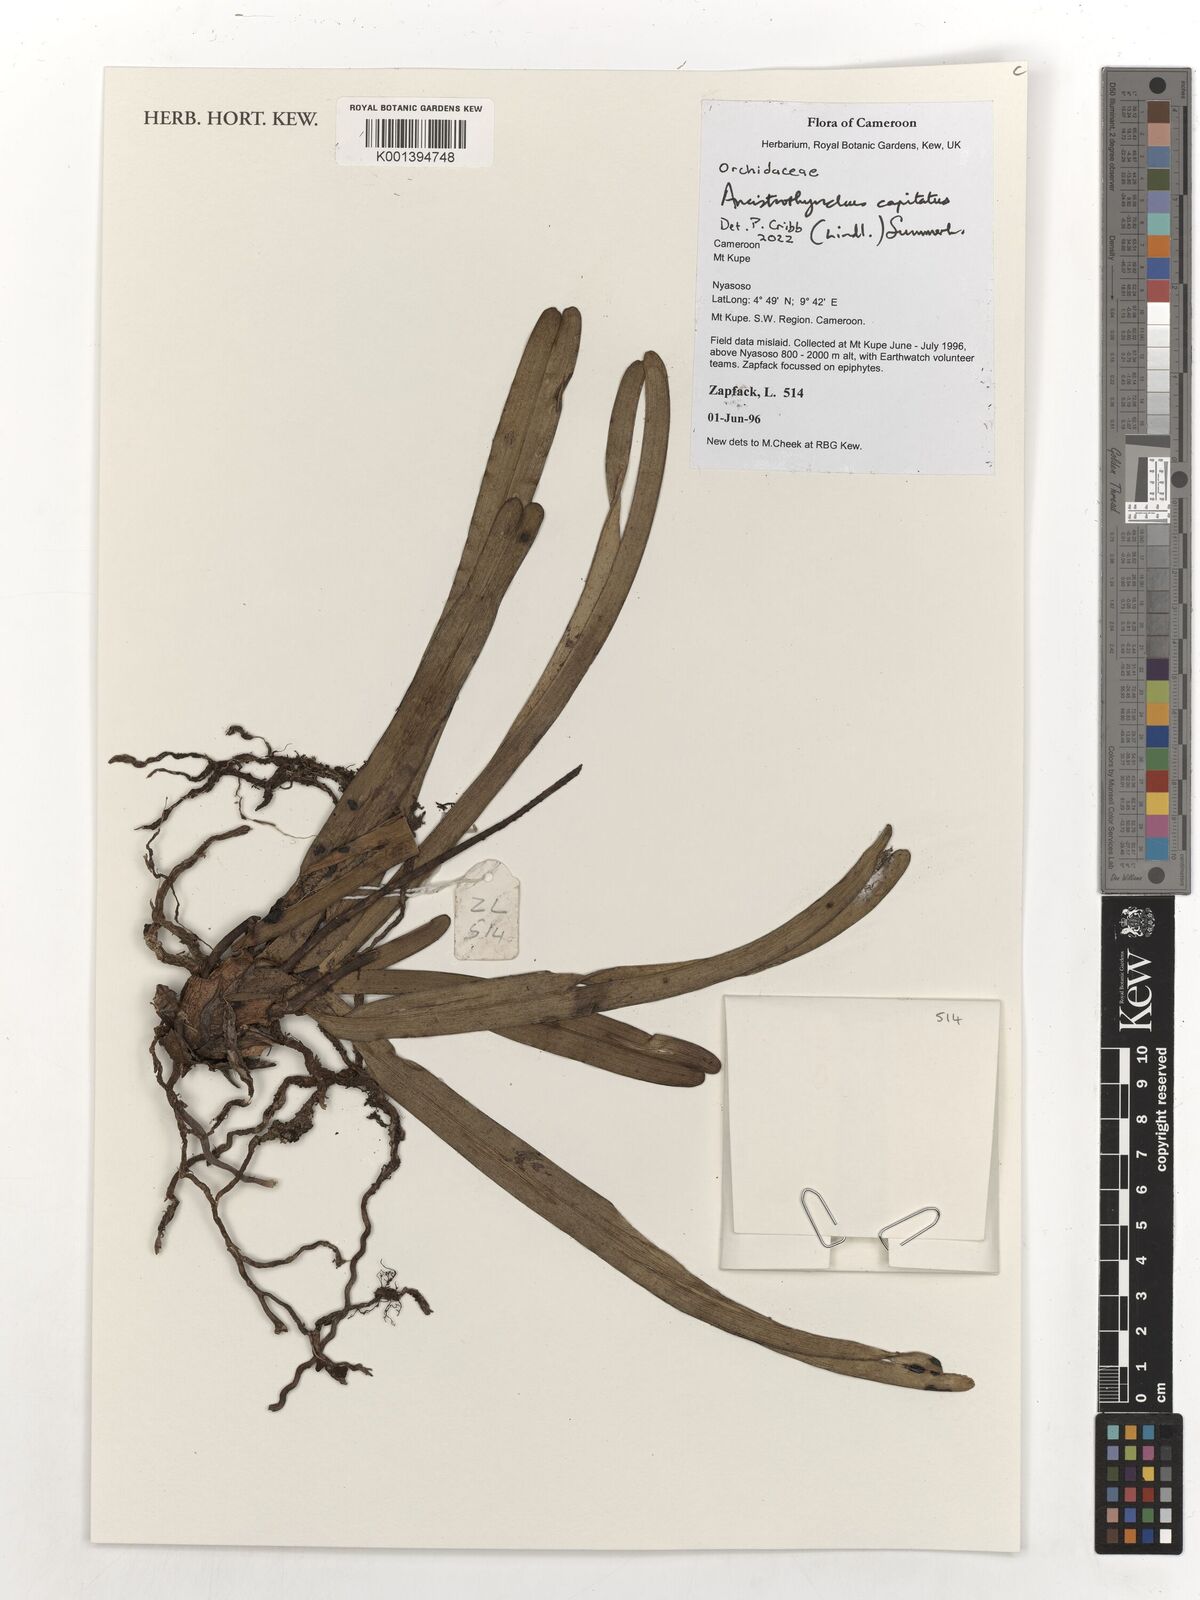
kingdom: Plantae
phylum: Tracheophyta
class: Liliopsida
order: Asparagales
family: Orchidaceae
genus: Ancistrorhynchus
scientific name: Ancistrorhynchus capitatus
